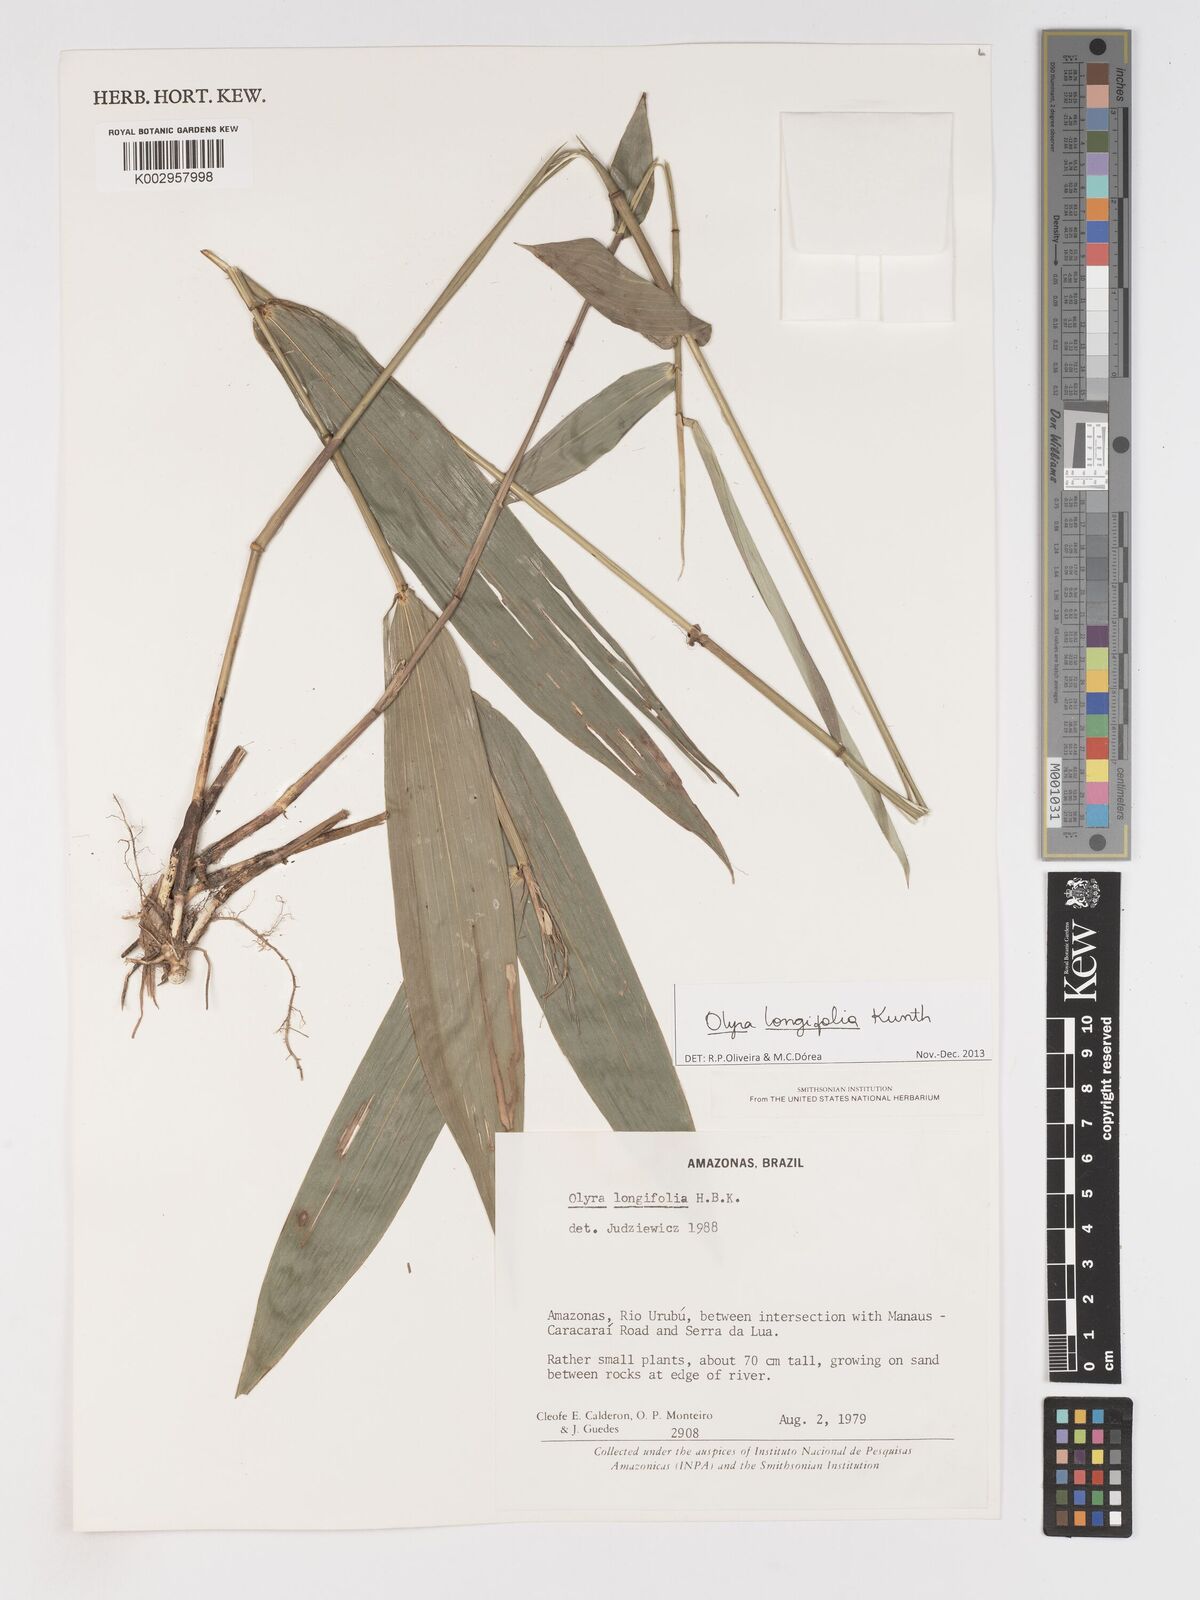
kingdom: Plantae
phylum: Tracheophyta
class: Liliopsida
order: Poales
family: Poaceae
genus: Olyra
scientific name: Olyra longifolia
